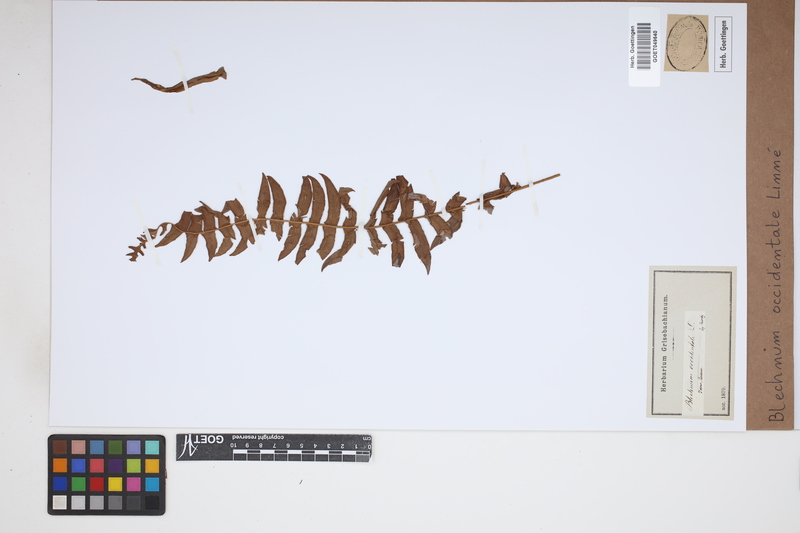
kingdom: Plantae
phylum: Tracheophyta
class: Polypodiopsida
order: Polypodiales
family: Blechnaceae
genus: Blechnum
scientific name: Blechnum occidentale
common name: Hammock fern
